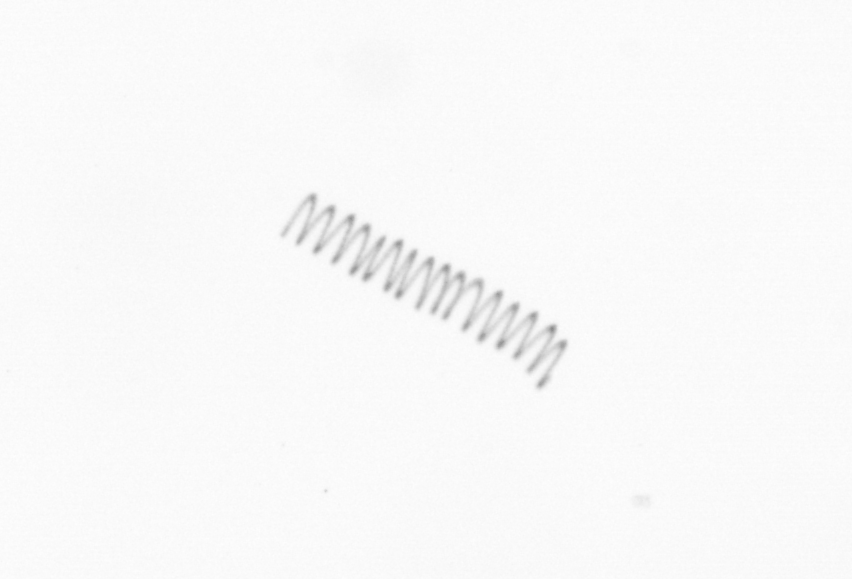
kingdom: Chromista
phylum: Ochrophyta
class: Bacillariophyceae
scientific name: Bacillariophyceae
